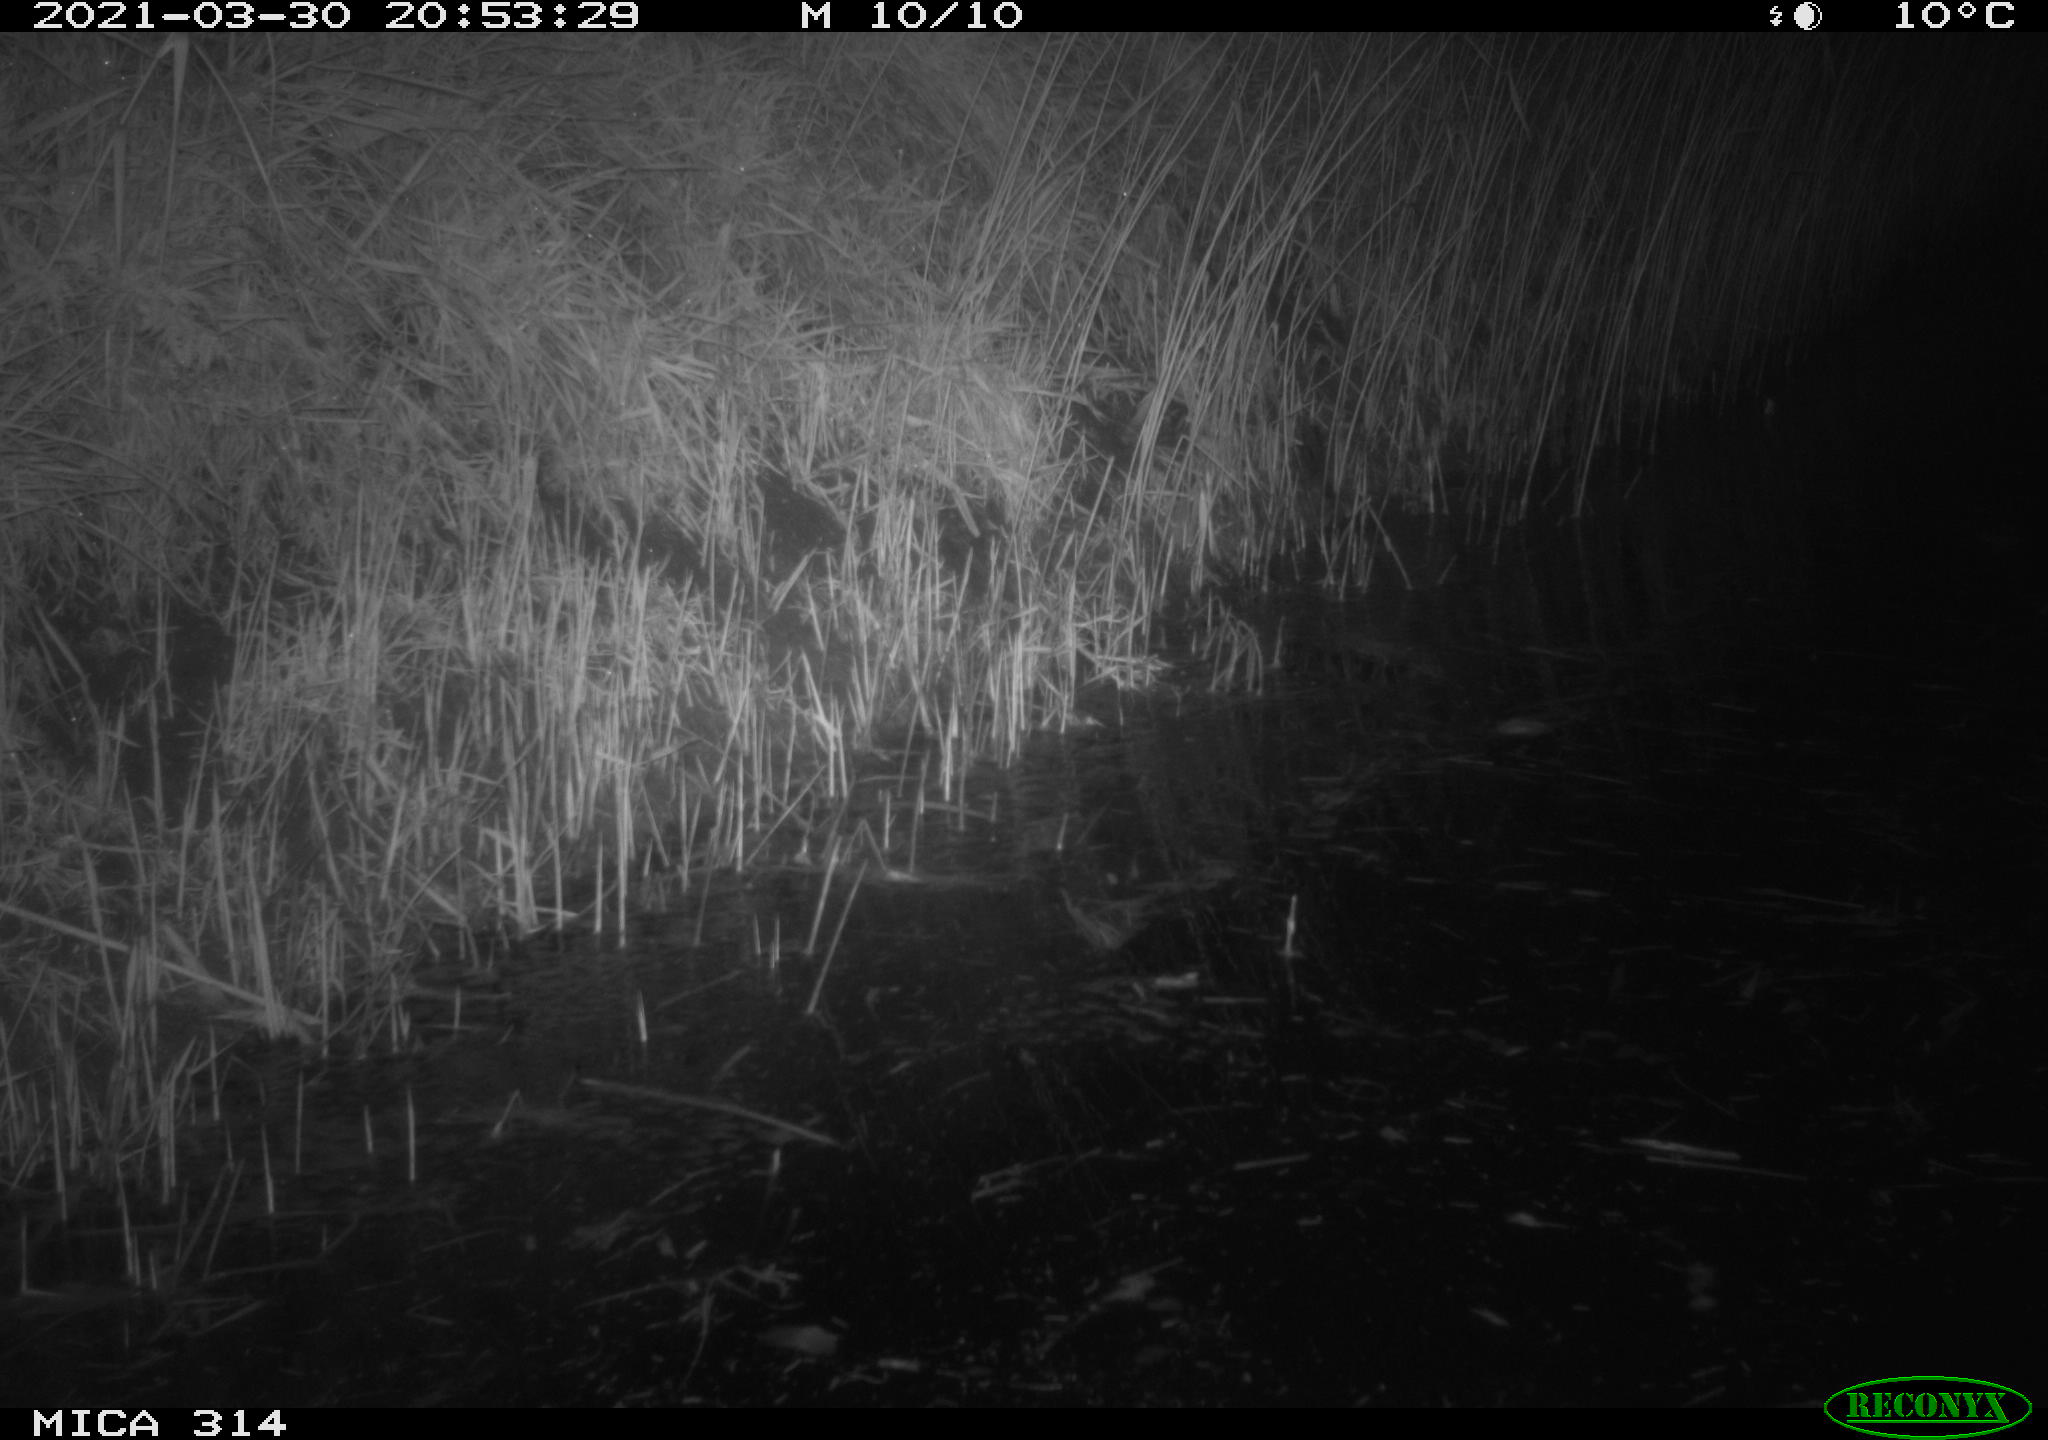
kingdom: Animalia
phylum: Chordata
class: Mammalia
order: Rodentia
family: Muridae
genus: Rattus
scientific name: Rattus norvegicus
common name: Brown rat
